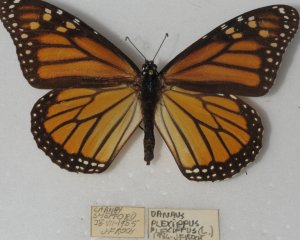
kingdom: Animalia
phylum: Arthropoda
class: Insecta
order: Lepidoptera
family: Nymphalidae
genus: Danaus
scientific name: Danaus plexippus
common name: Monarch
